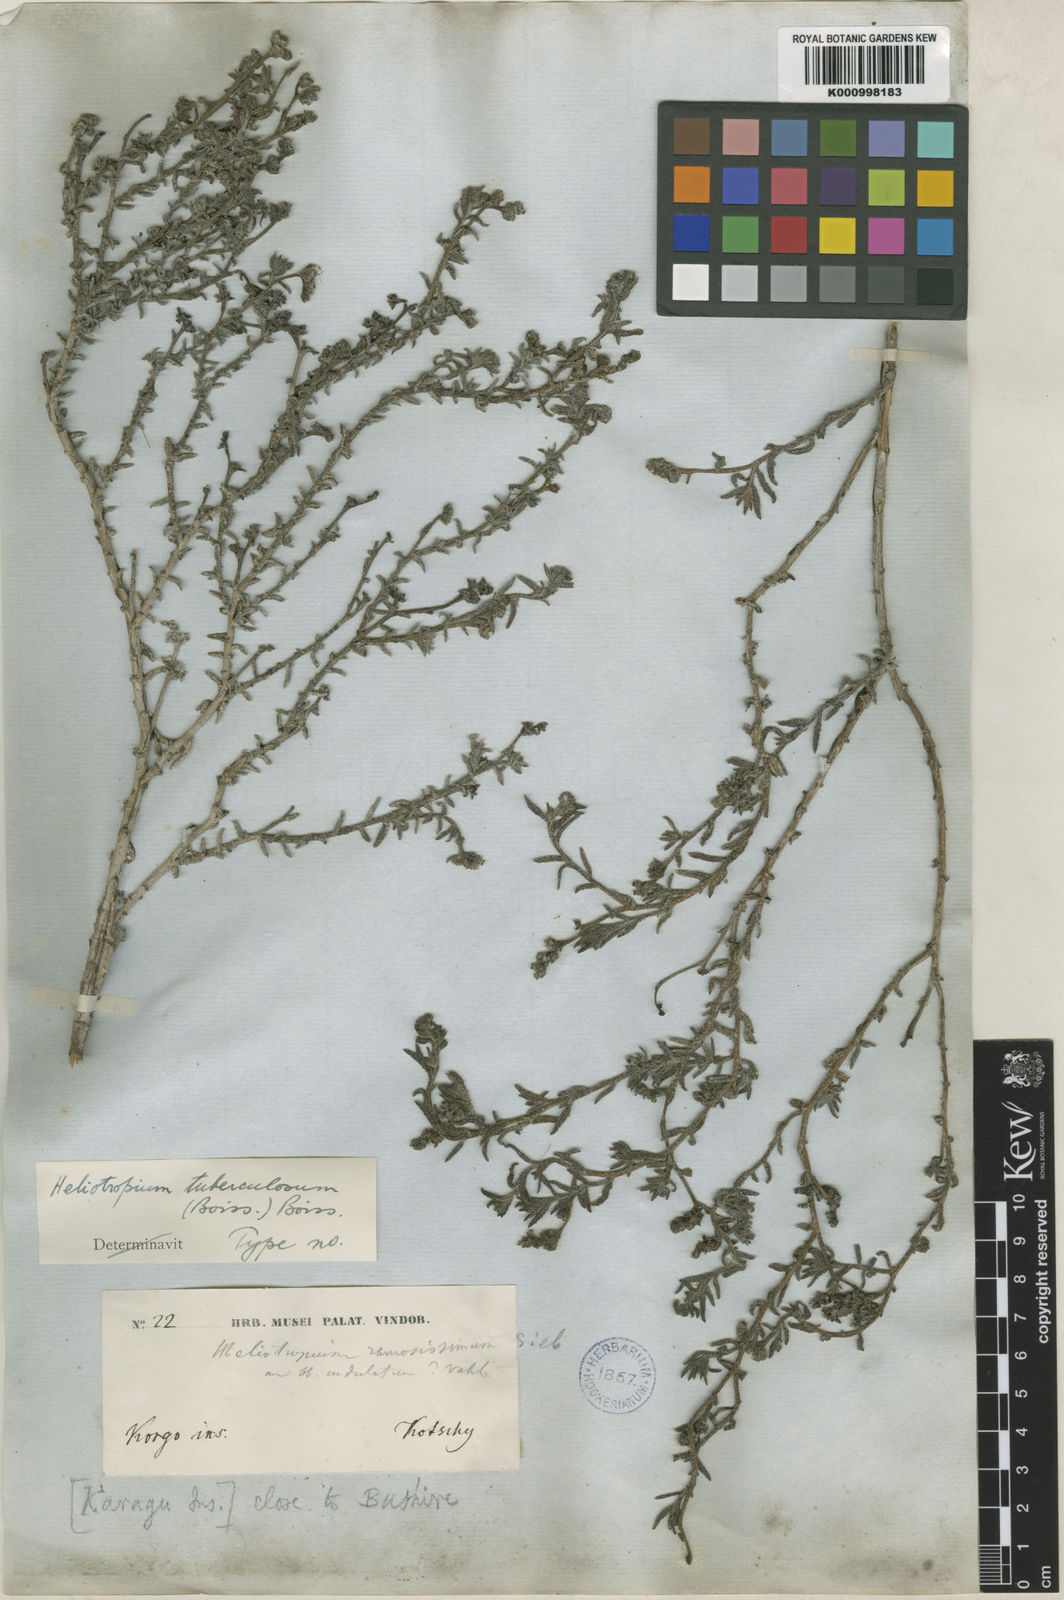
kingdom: Plantae
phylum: Tracheophyta
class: Magnoliopsida
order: Boraginales
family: Heliotropiaceae
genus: Heliotropium
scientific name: Heliotropium bacciferum
